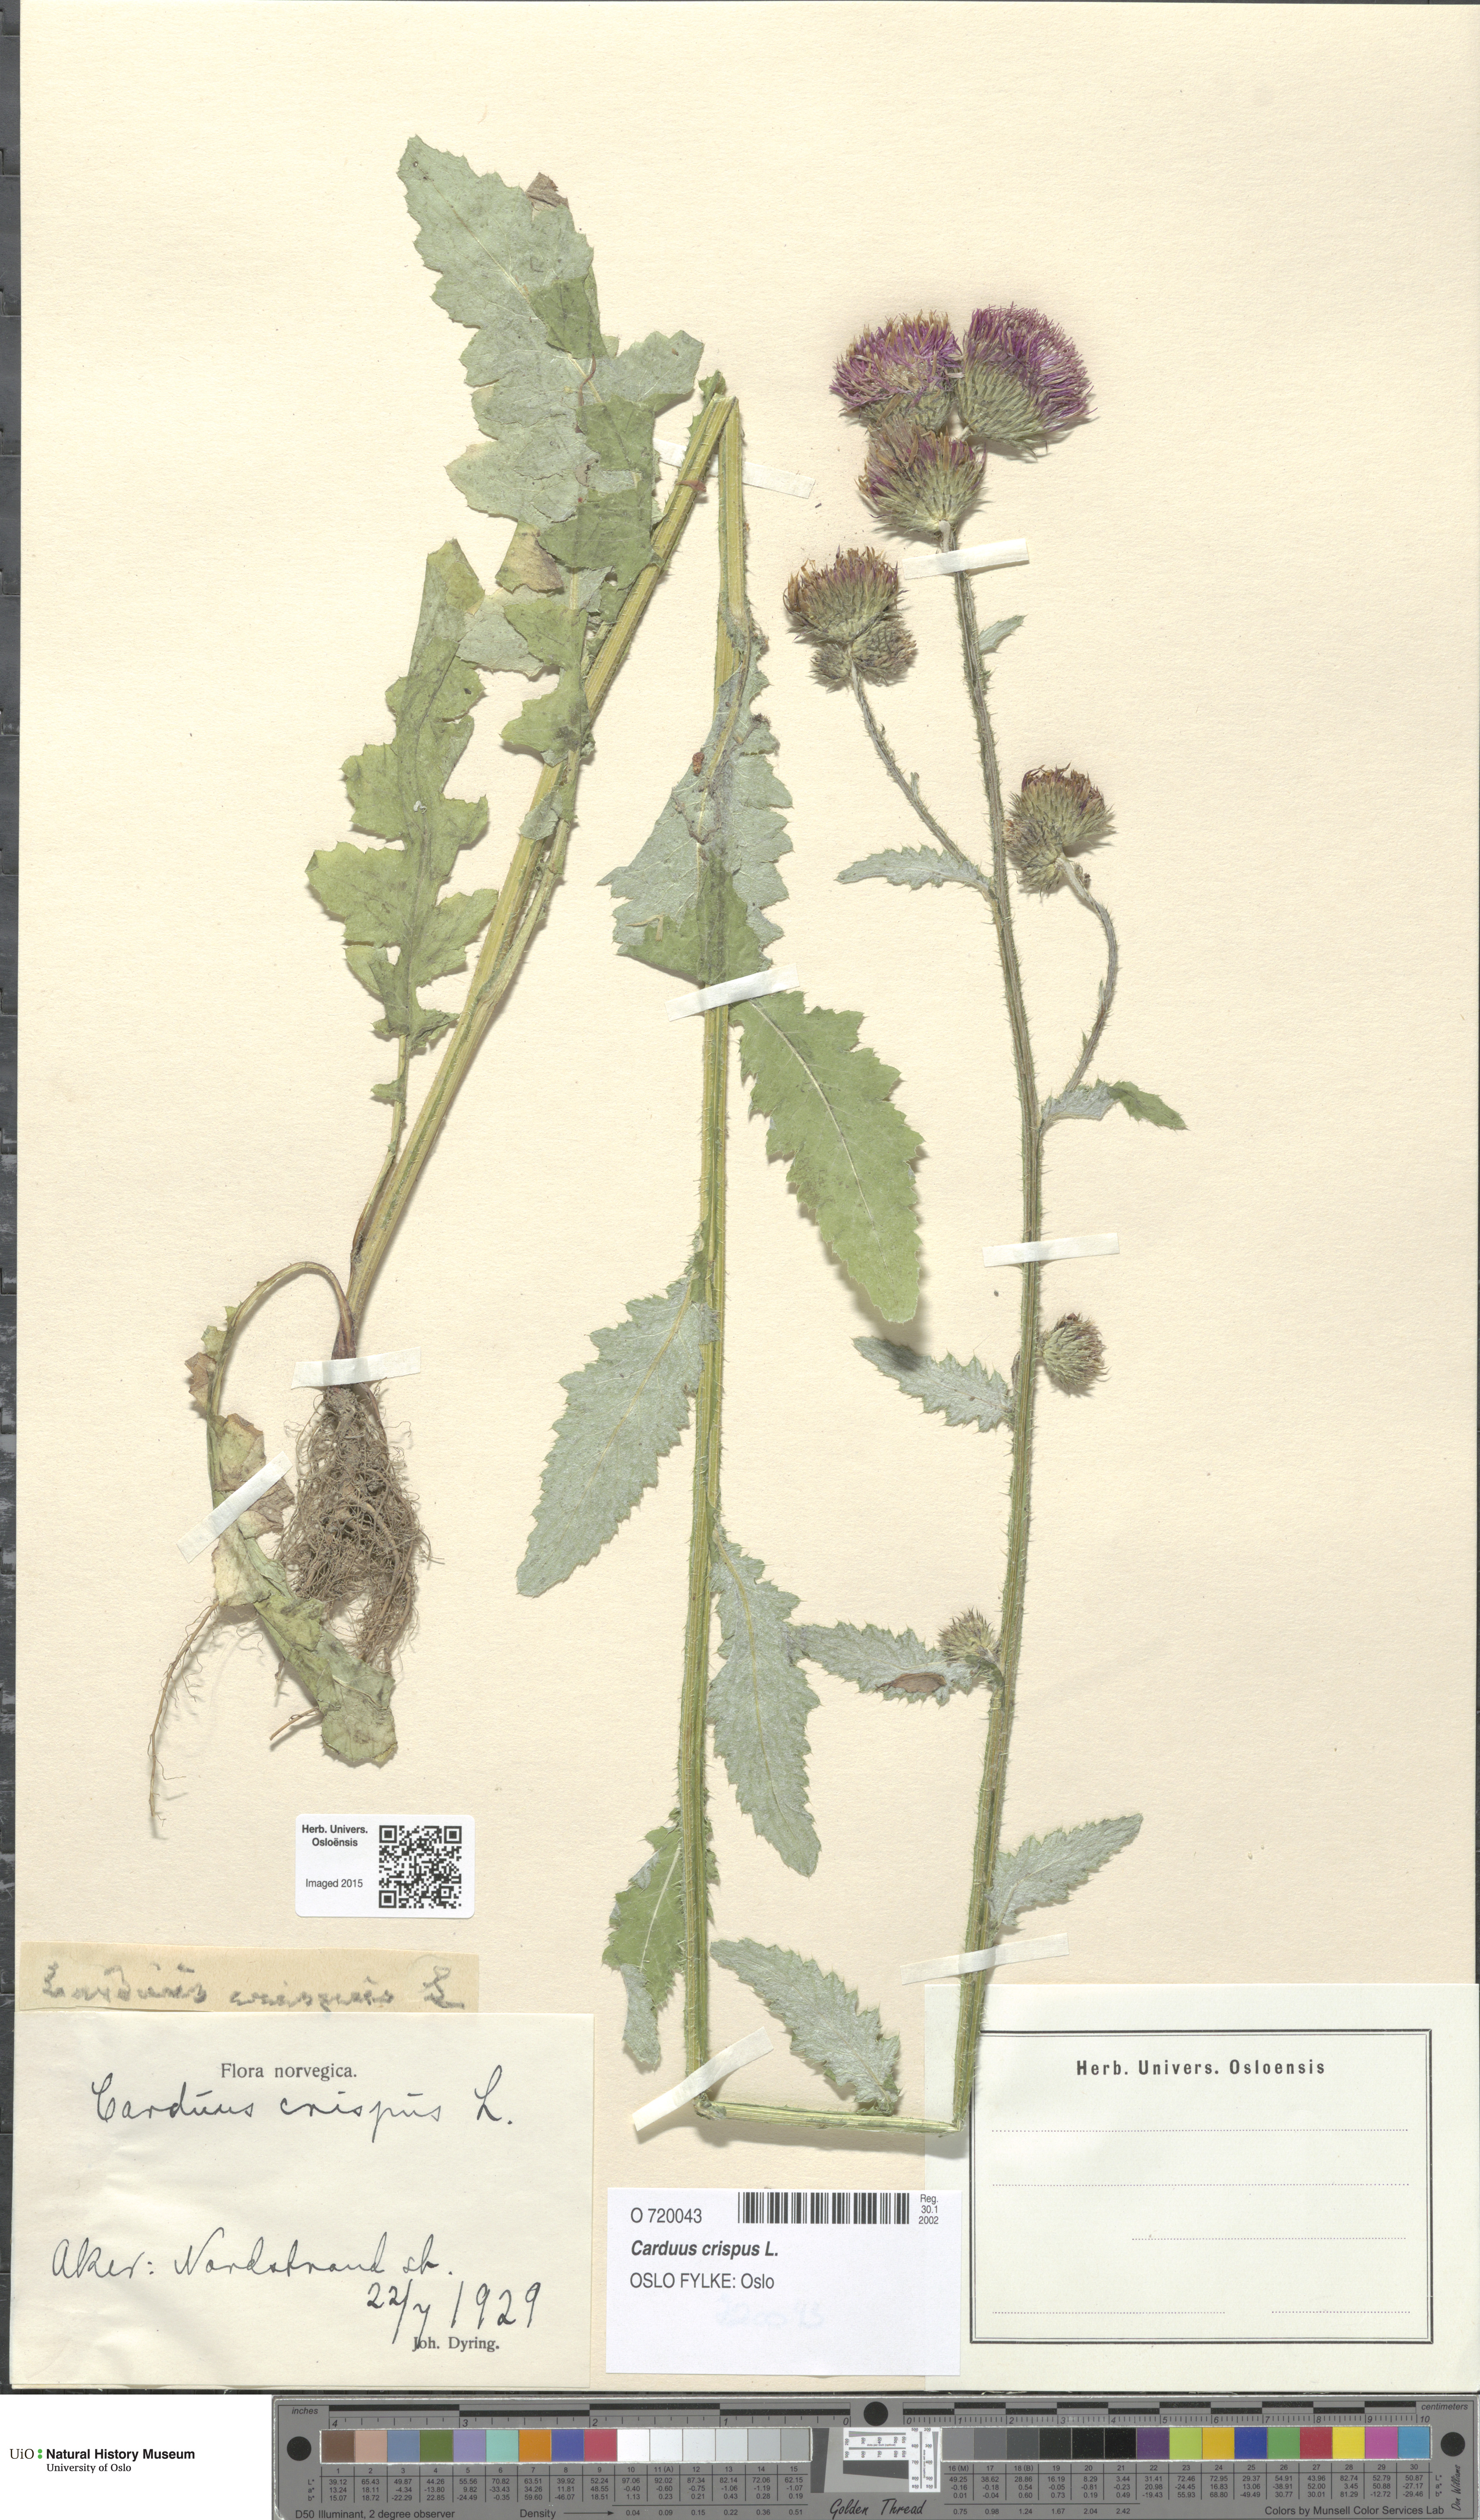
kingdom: Plantae
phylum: Tracheophyta
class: Magnoliopsida
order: Asterales
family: Asteraceae
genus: Carduus
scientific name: Carduus crispus
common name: Welted thistle
